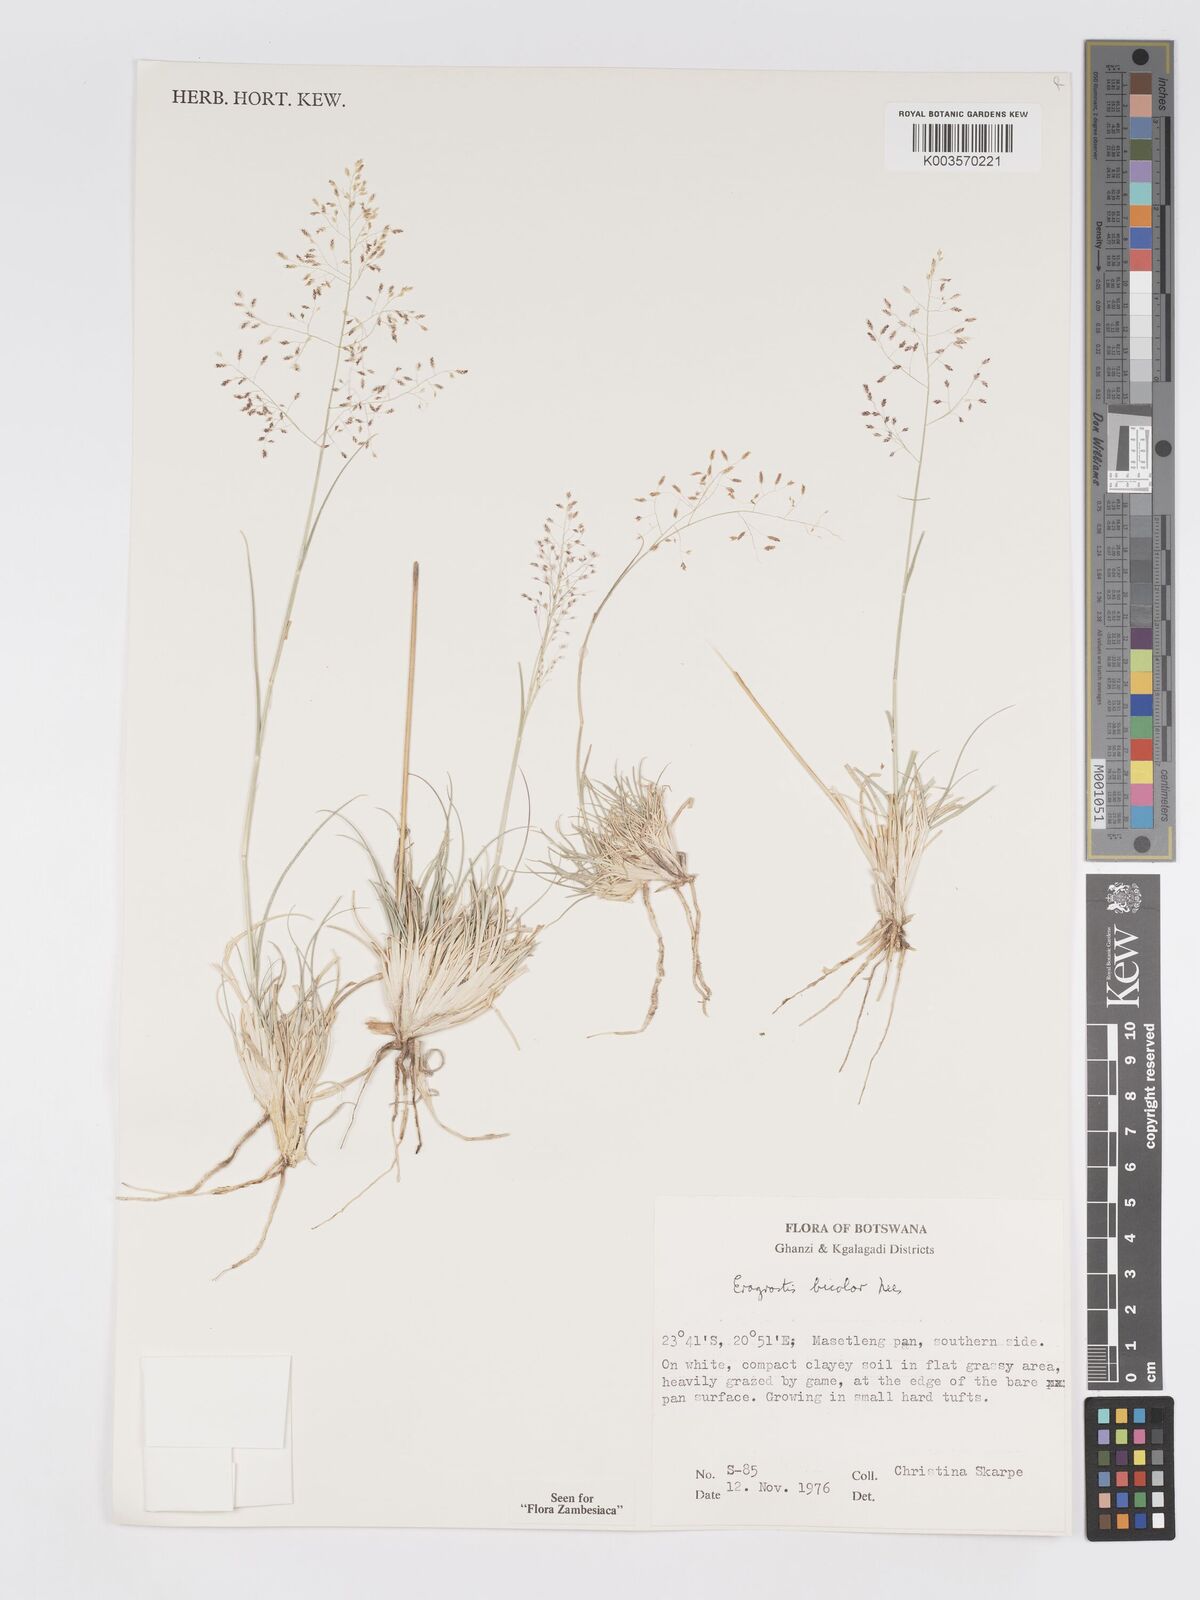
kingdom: Plantae
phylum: Tracheophyta
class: Liliopsida
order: Poales
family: Poaceae
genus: Eragrostis
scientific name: Eragrostis bicolor
